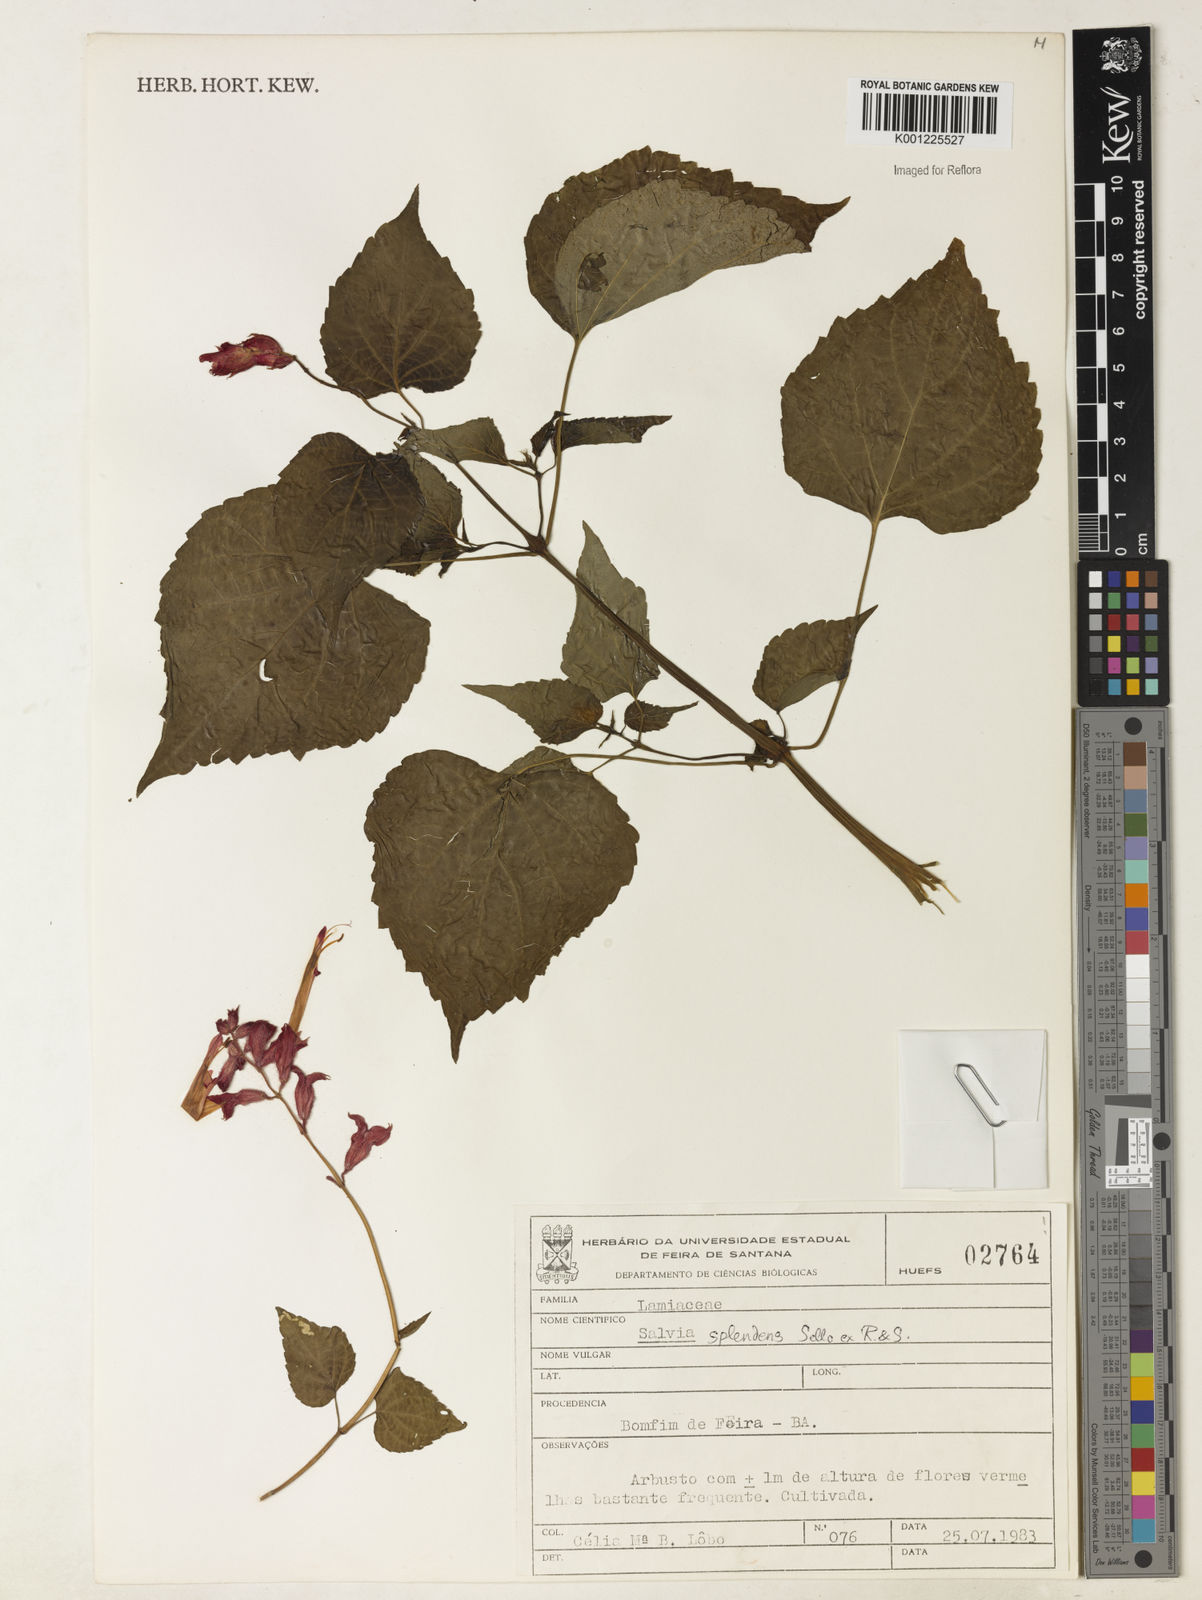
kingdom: Plantae
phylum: Tracheophyta
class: Magnoliopsida
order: Lamiales
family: Lamiaceae
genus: Salvia
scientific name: Salvia
